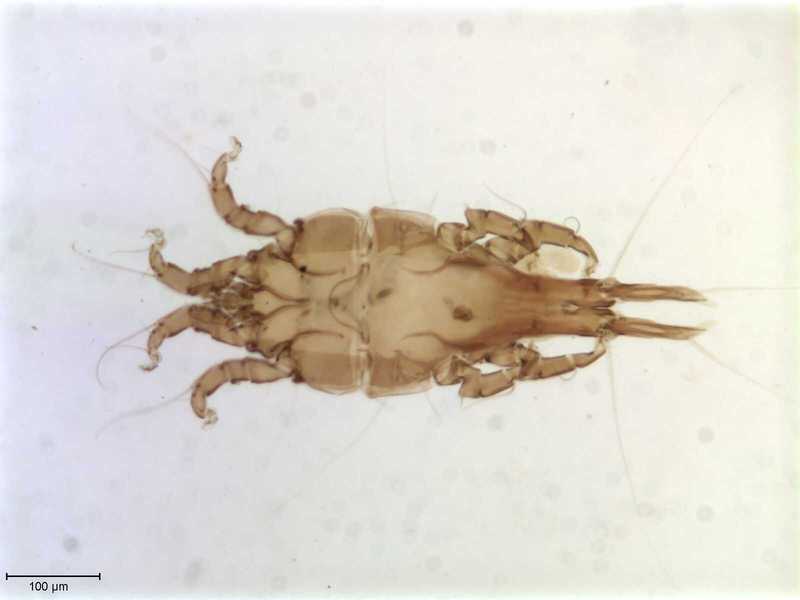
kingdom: Animalia
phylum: Arthropoda
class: Arachnida
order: Sarcoptiformes
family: Trouessartiidae
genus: Bicentralges
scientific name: Bicentralges
